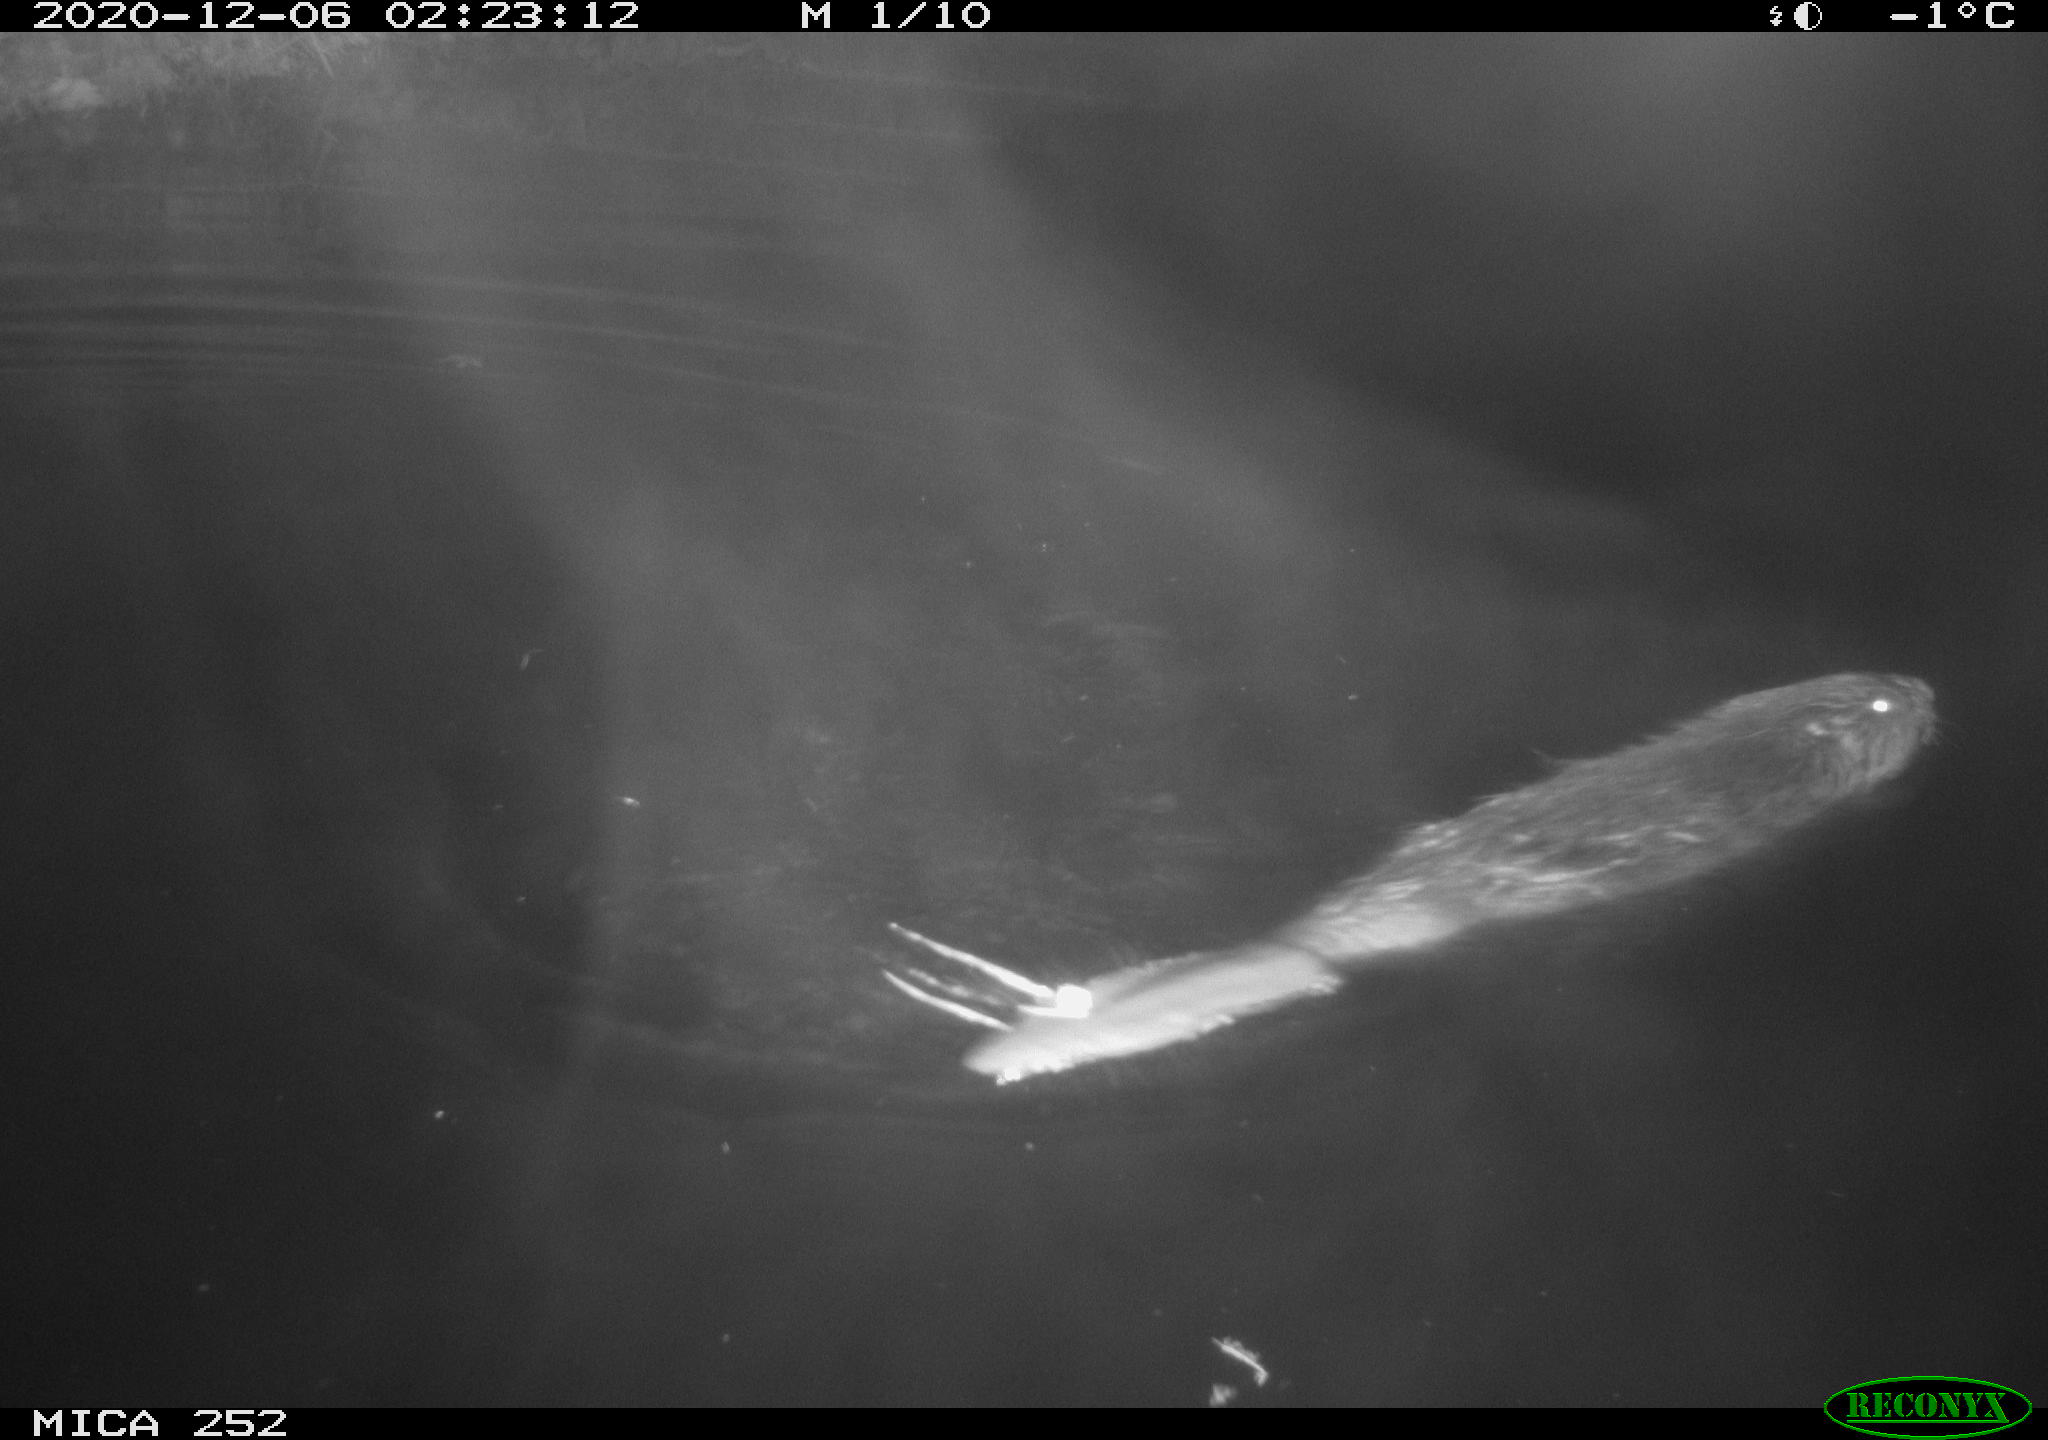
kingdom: Animalia
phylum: Chordata
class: Mammalia
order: Rodentia
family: Castoridae
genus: Castor
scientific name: Castor fiber
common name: Eurasian beaver
